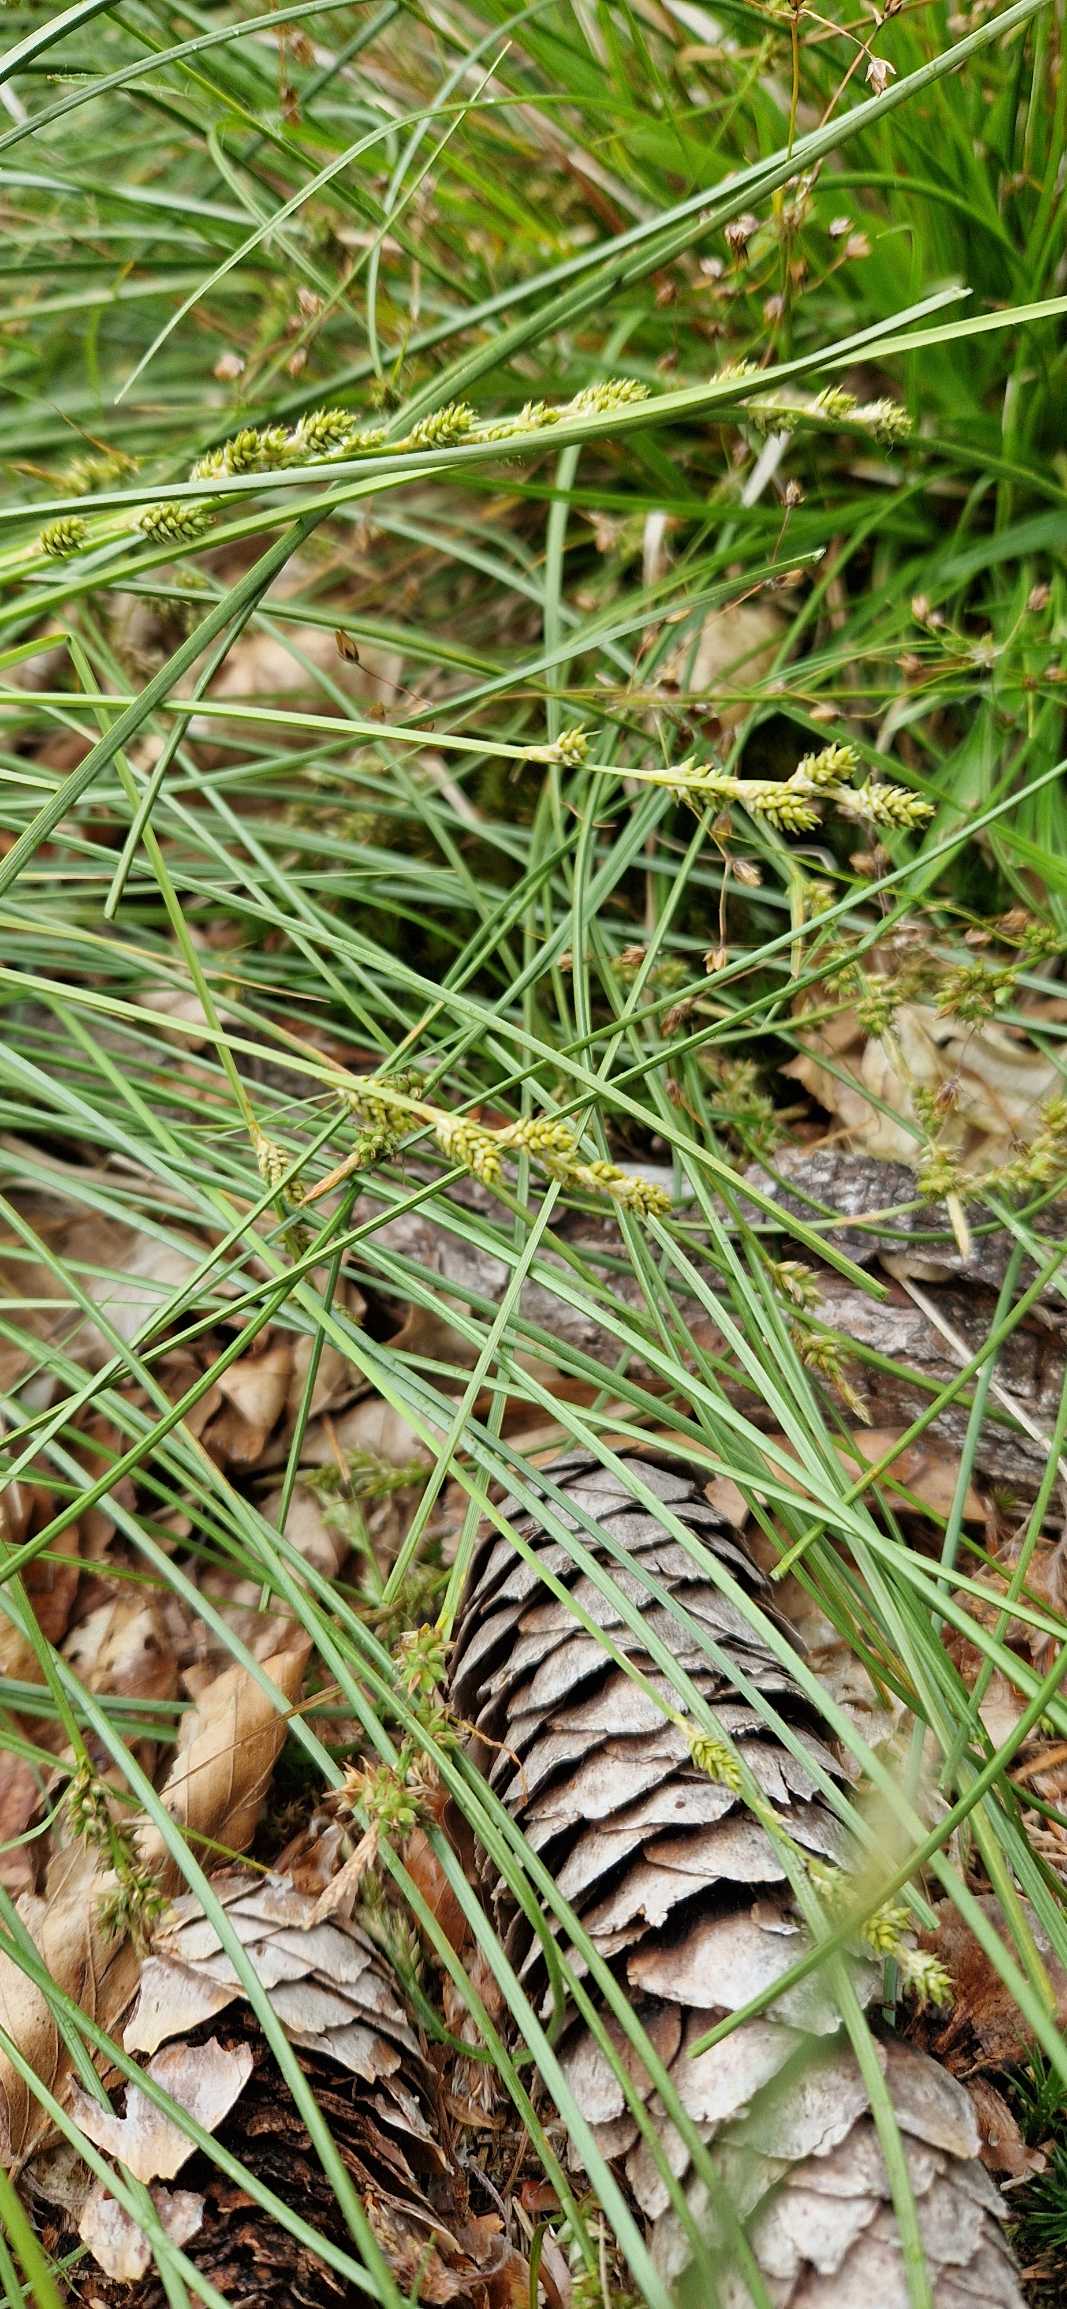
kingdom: Plantae
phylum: Tracheophyta
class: Liliopsida
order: Poales
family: Cyperaceae
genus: Carex
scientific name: Carex canescens
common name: Grå star
